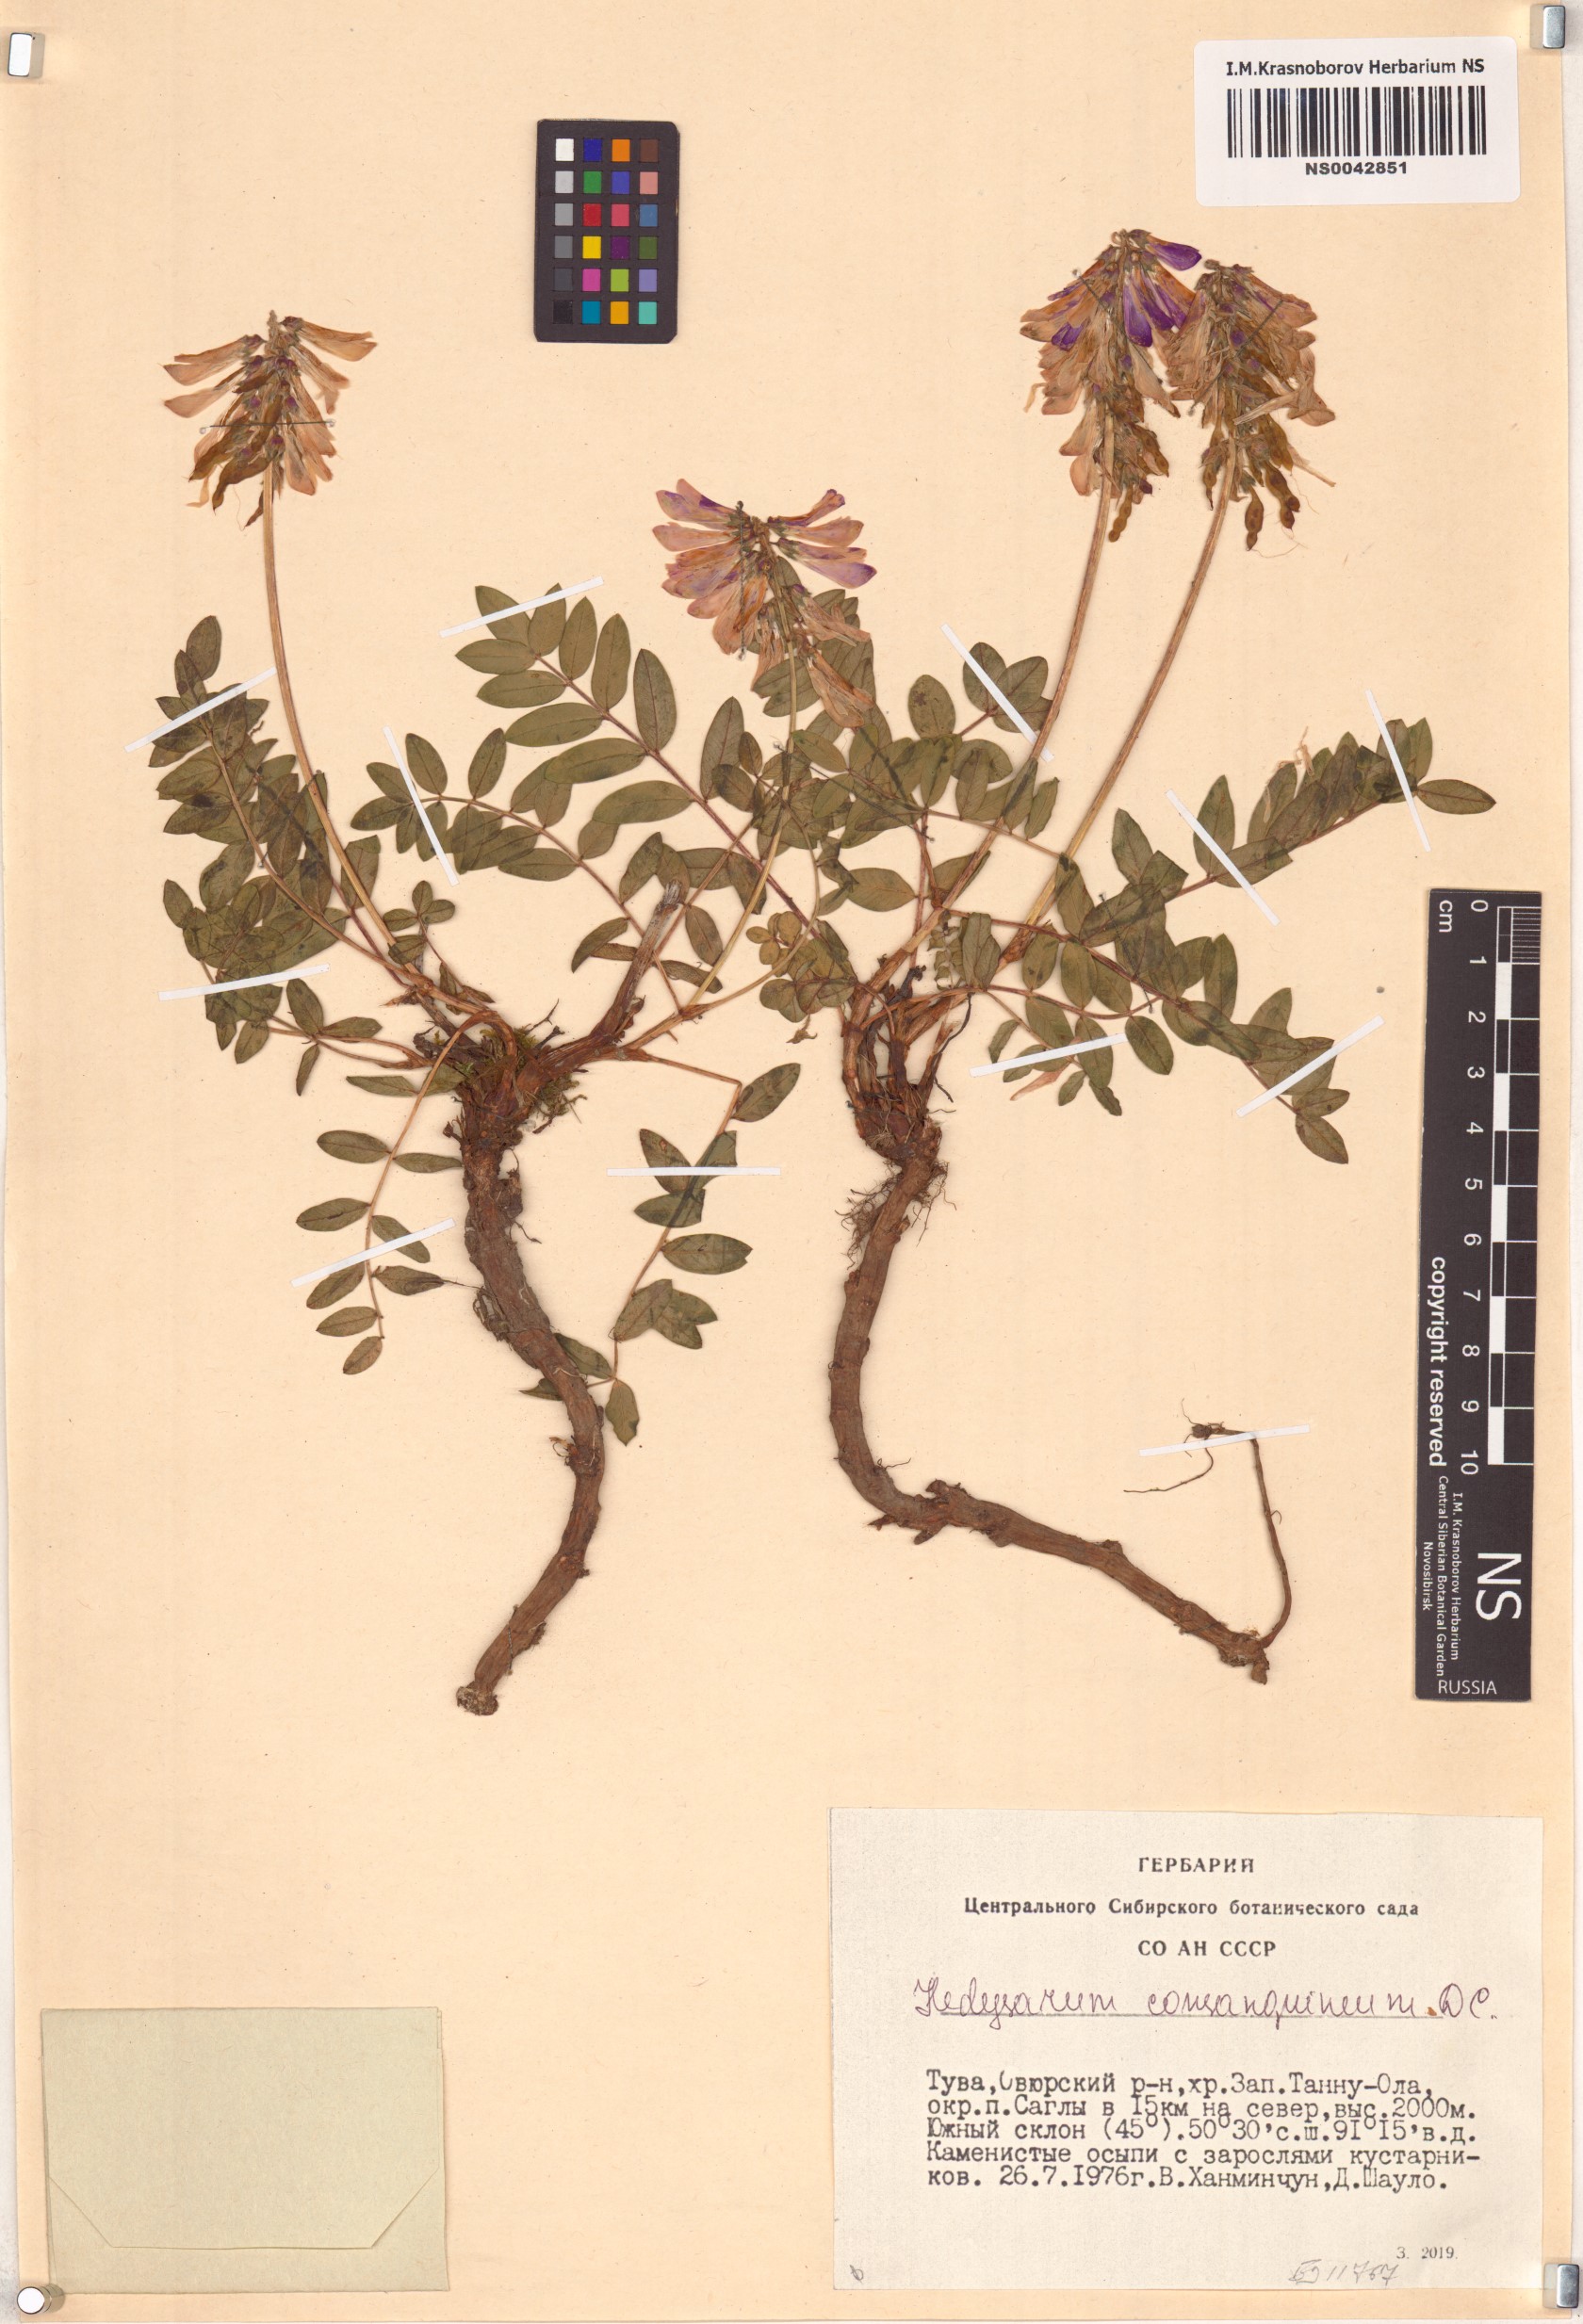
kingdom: Plantae
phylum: Tracheophyta
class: Magnoliopsida
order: Fabales
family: Fabaceae
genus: Hedysarum
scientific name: Hedysarum consanguineum
